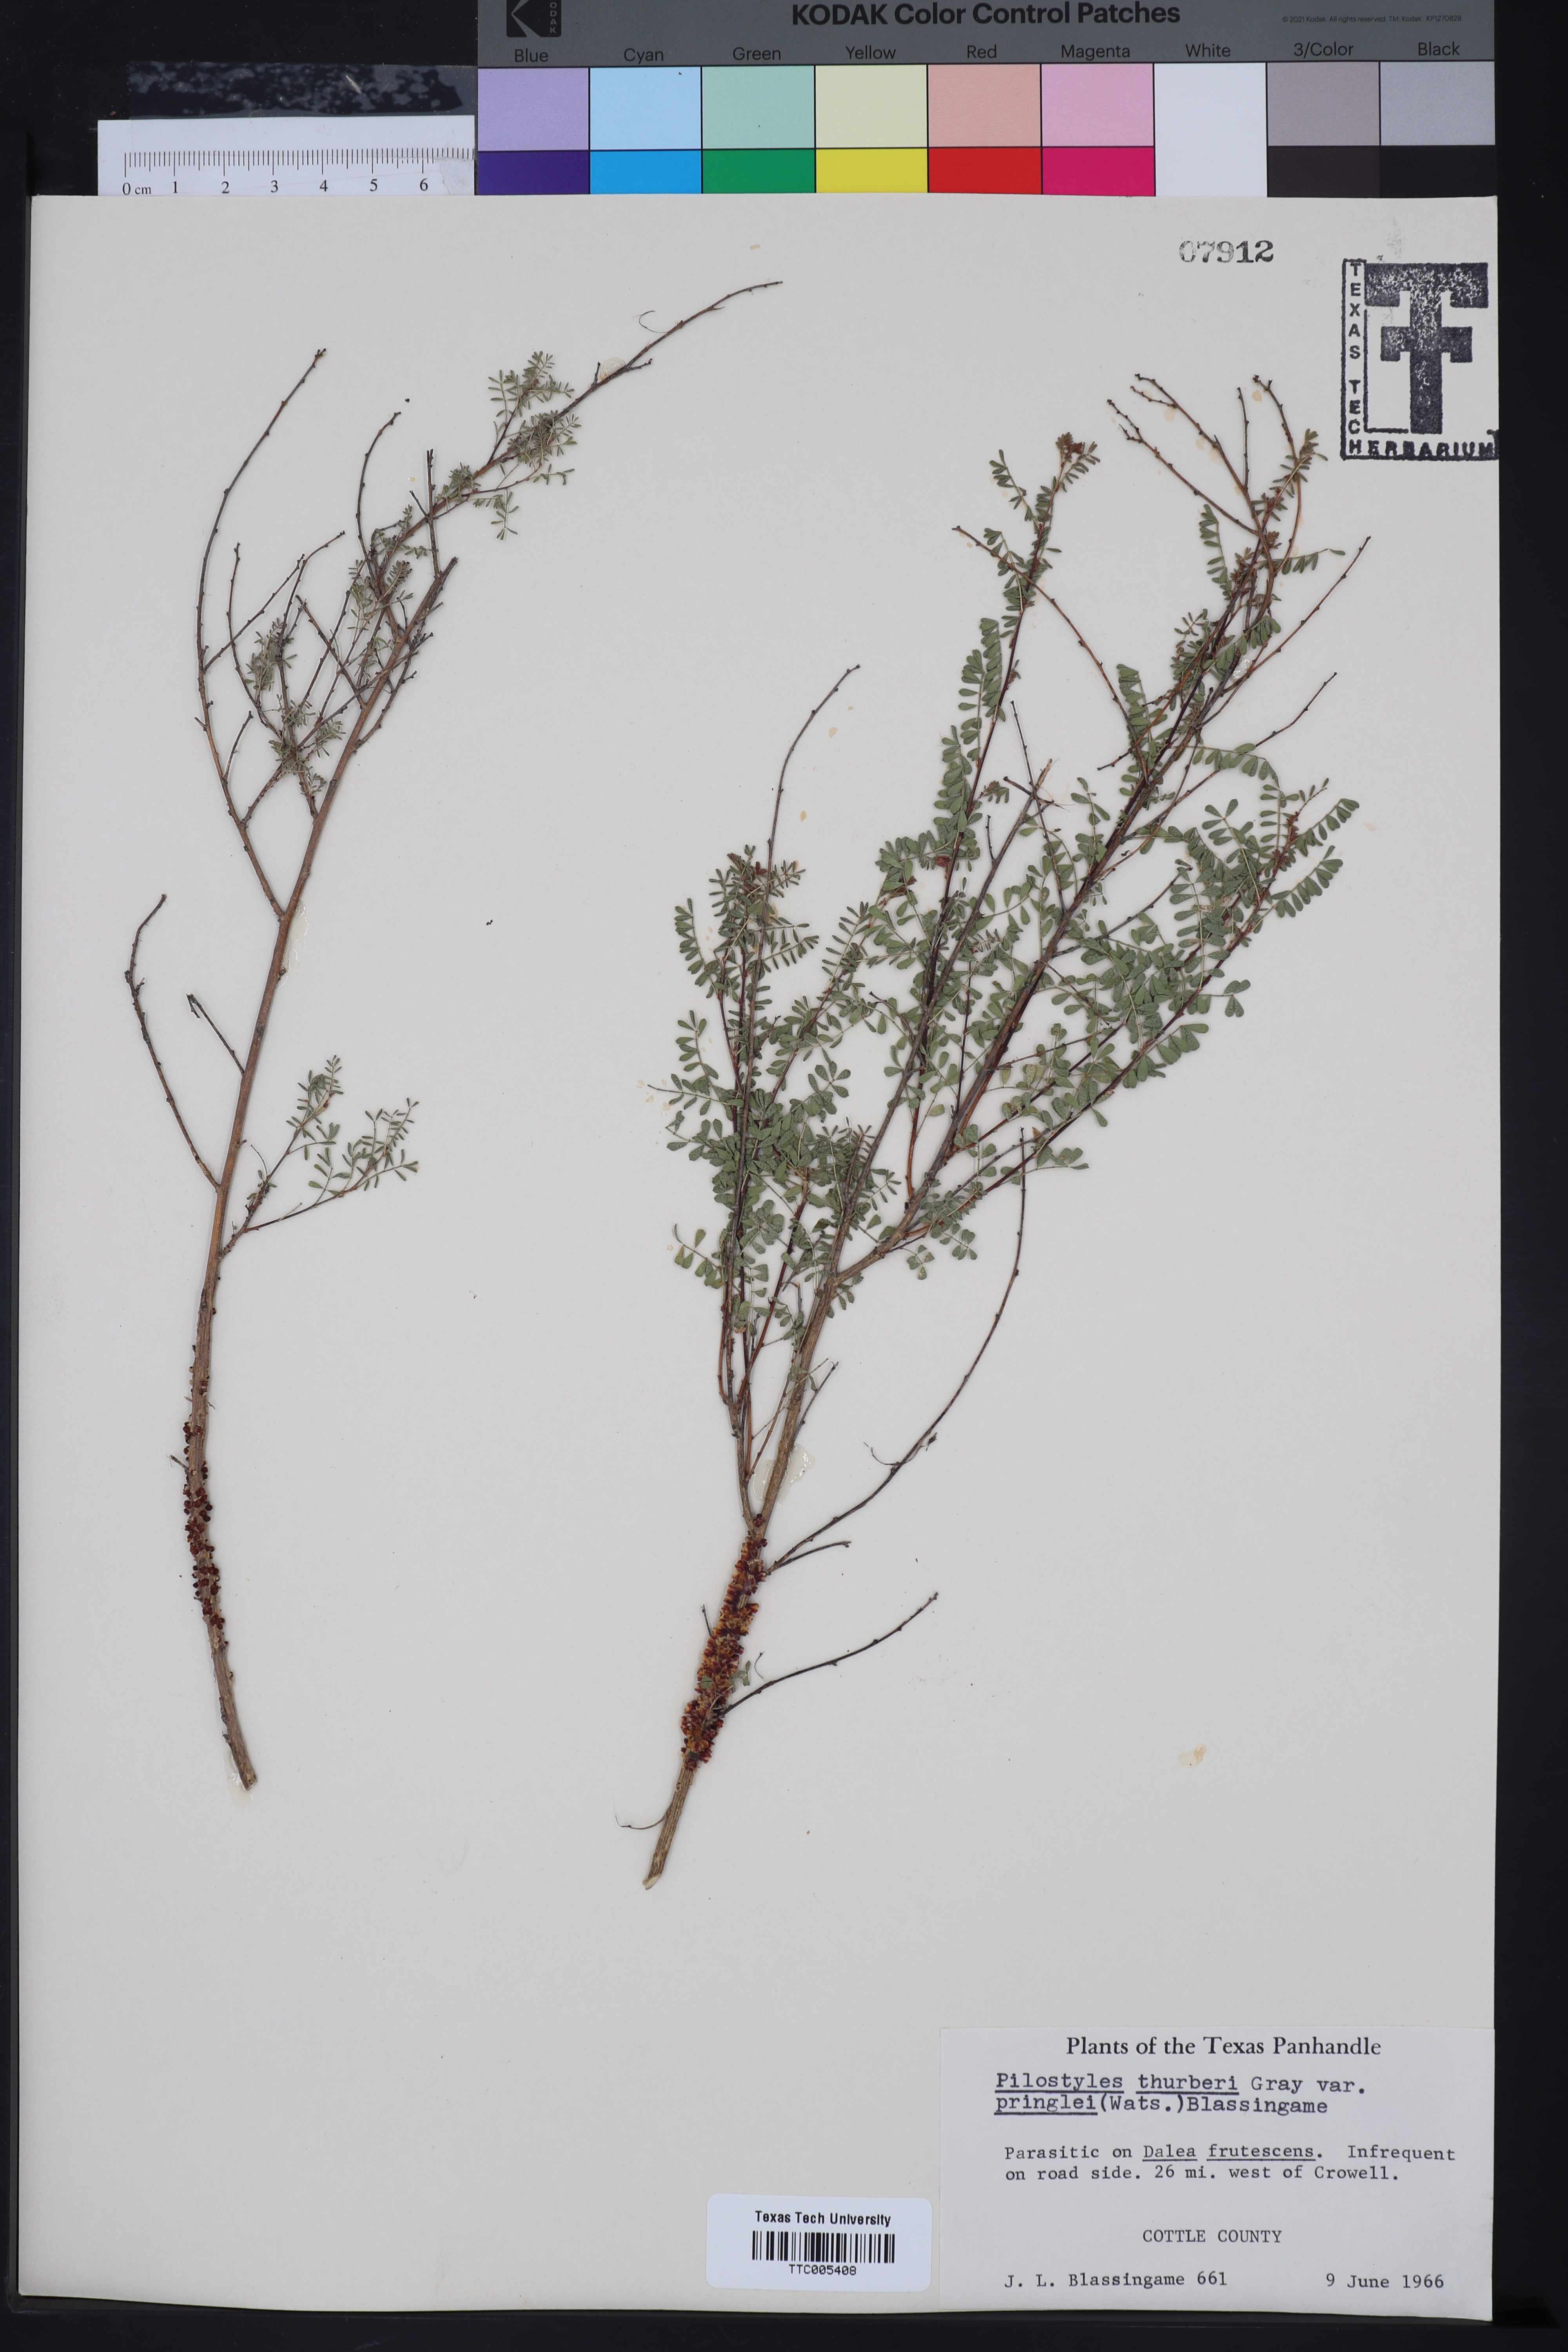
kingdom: Plantae
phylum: Tracheophyta
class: Magnoliopsida
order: Cucurbitales
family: Apodanthaceae
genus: Pilostyles
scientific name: Pilostyles thurberi
